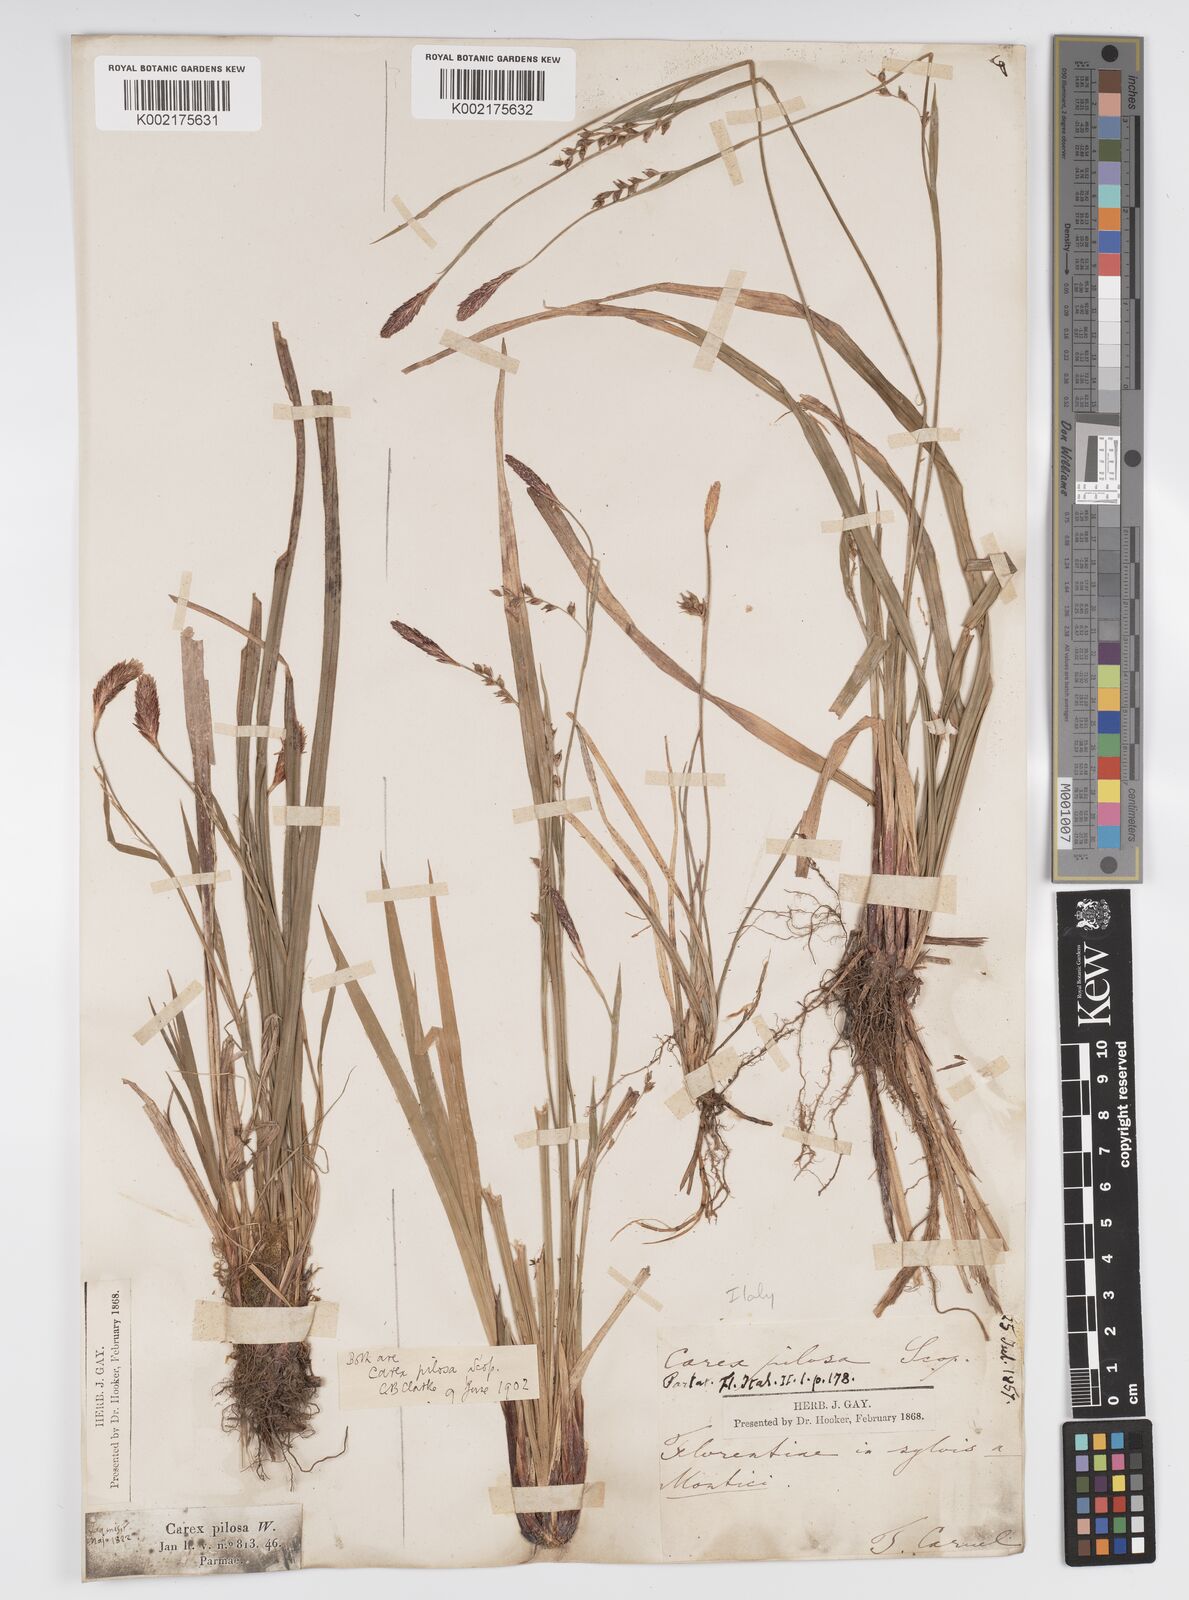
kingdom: Plantae
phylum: Tracheophyta
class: Liliopsida
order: Poales
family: Cyperaceae
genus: Carex
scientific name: Carex pilosa
